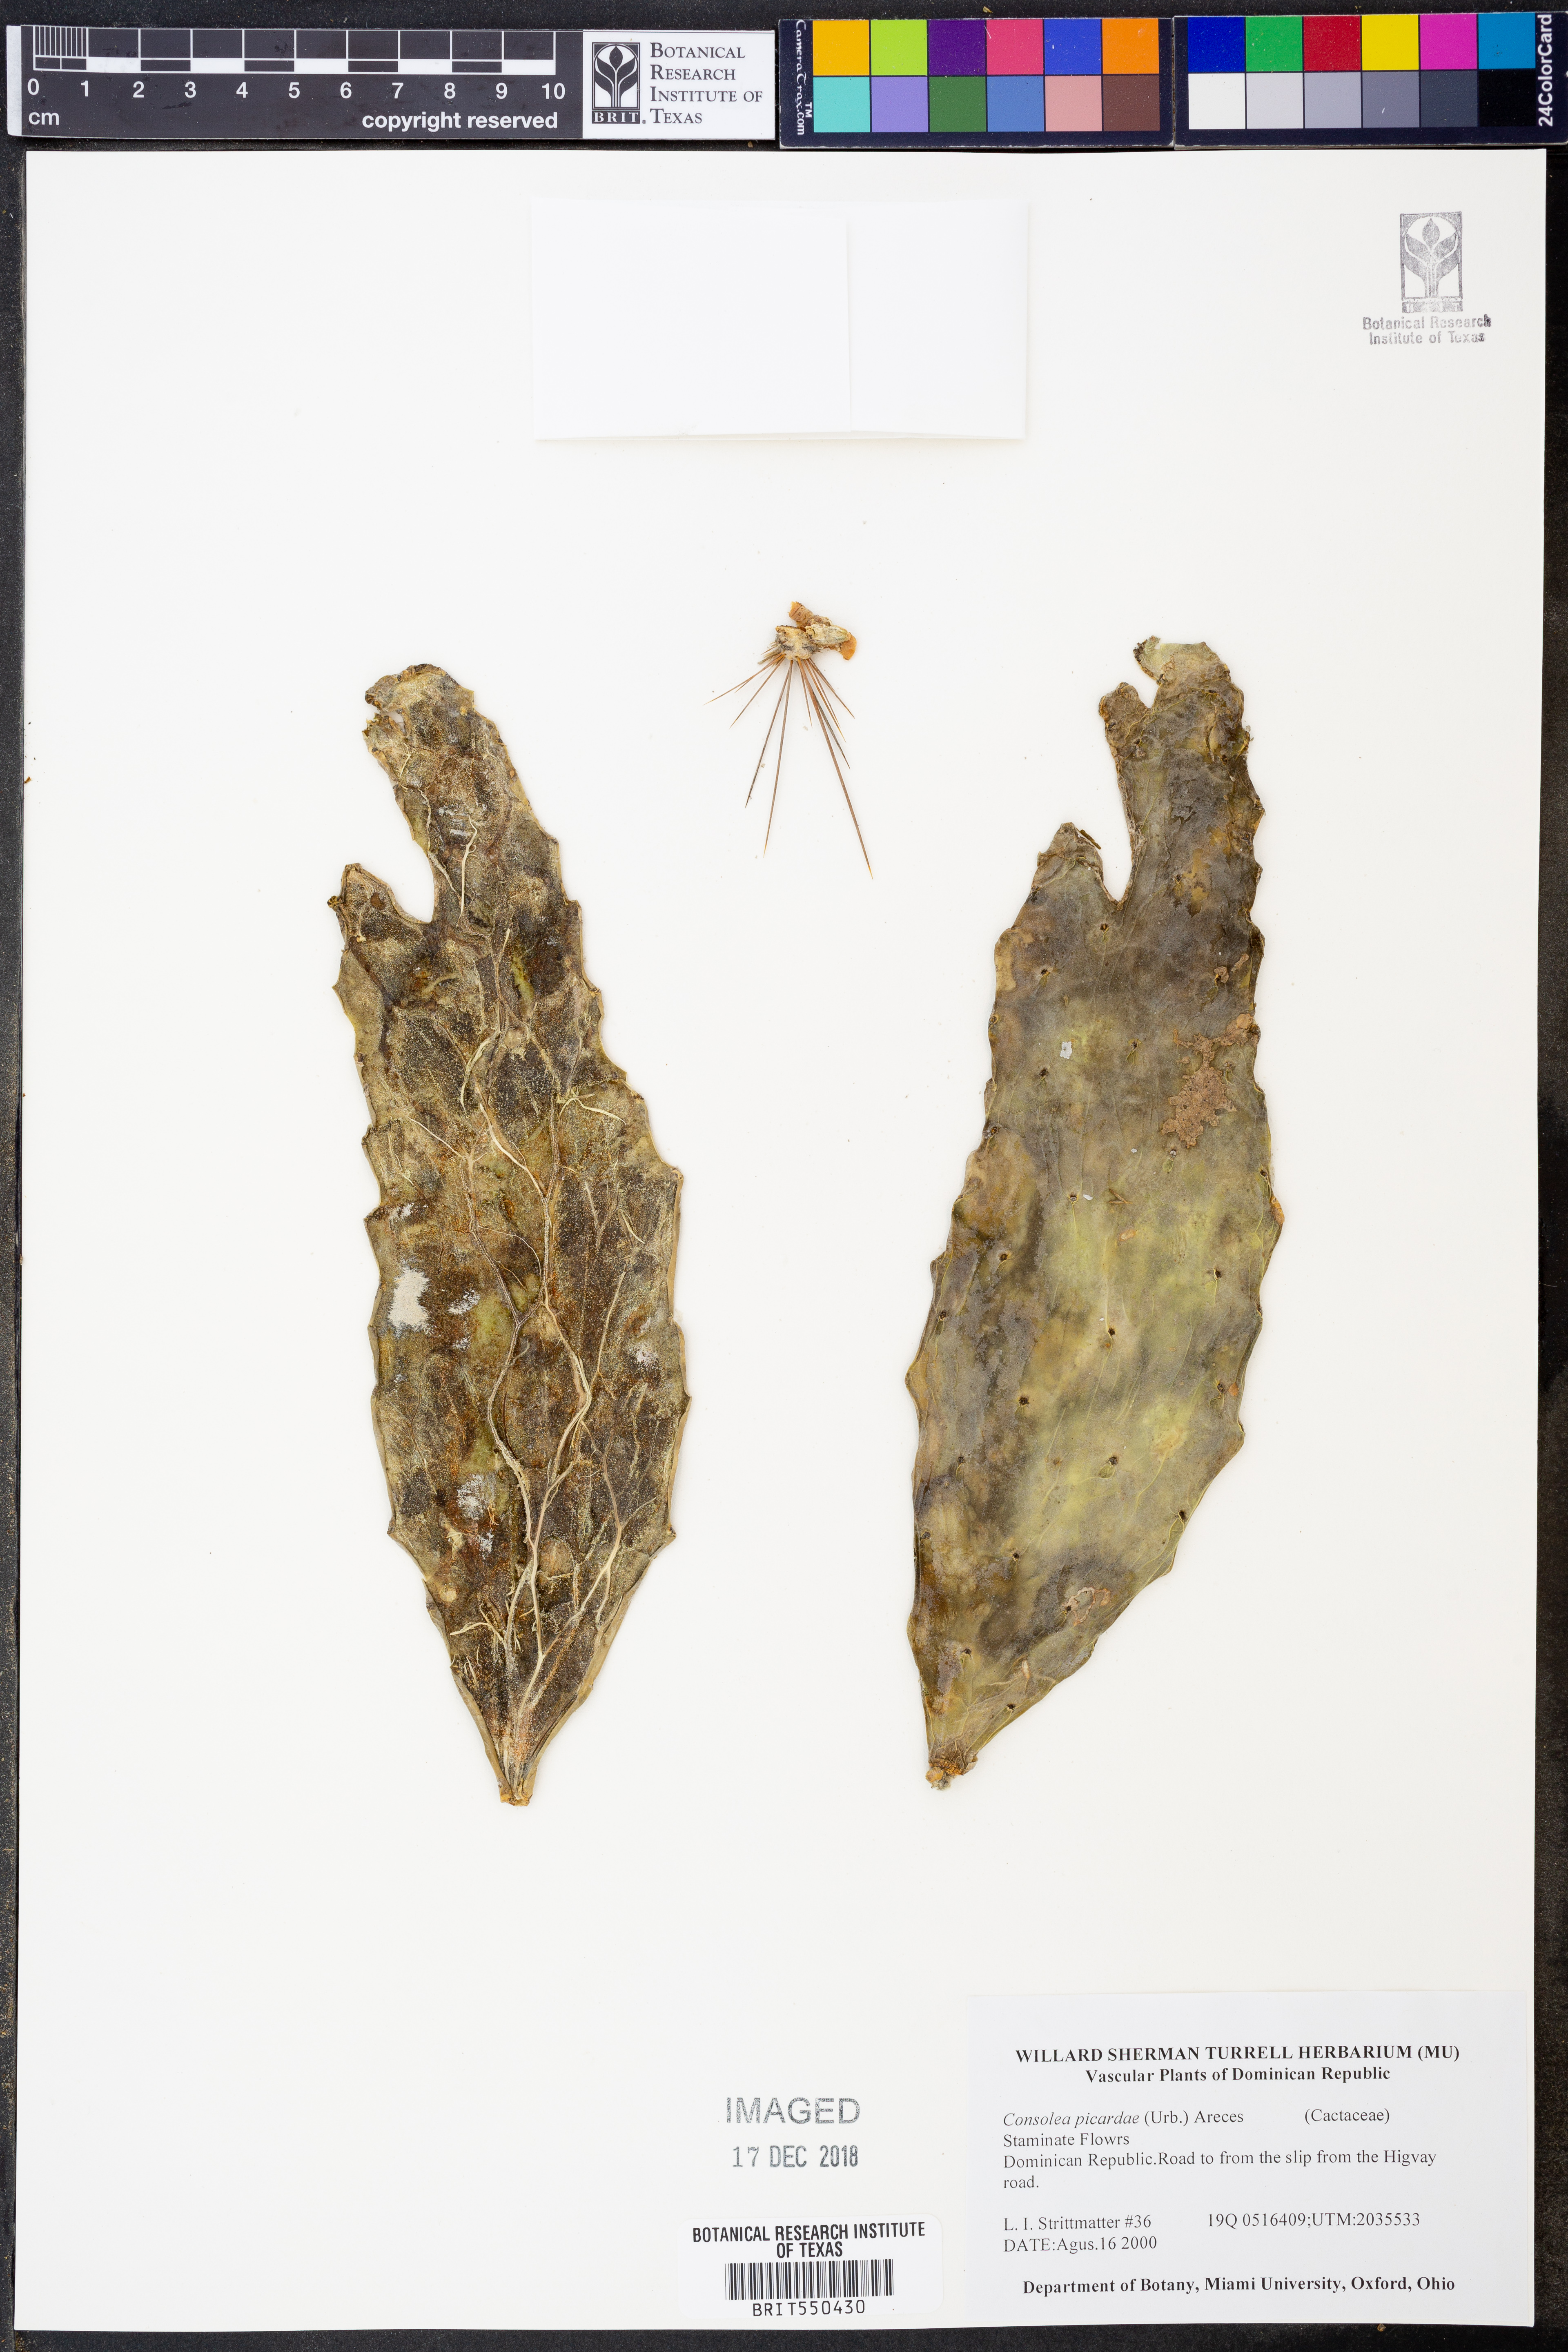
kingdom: Plantae
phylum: Tracheophyta
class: Magnoliopsida
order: Caryophyllales
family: Cactaceae
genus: Consolea
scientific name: Consolea picardae
